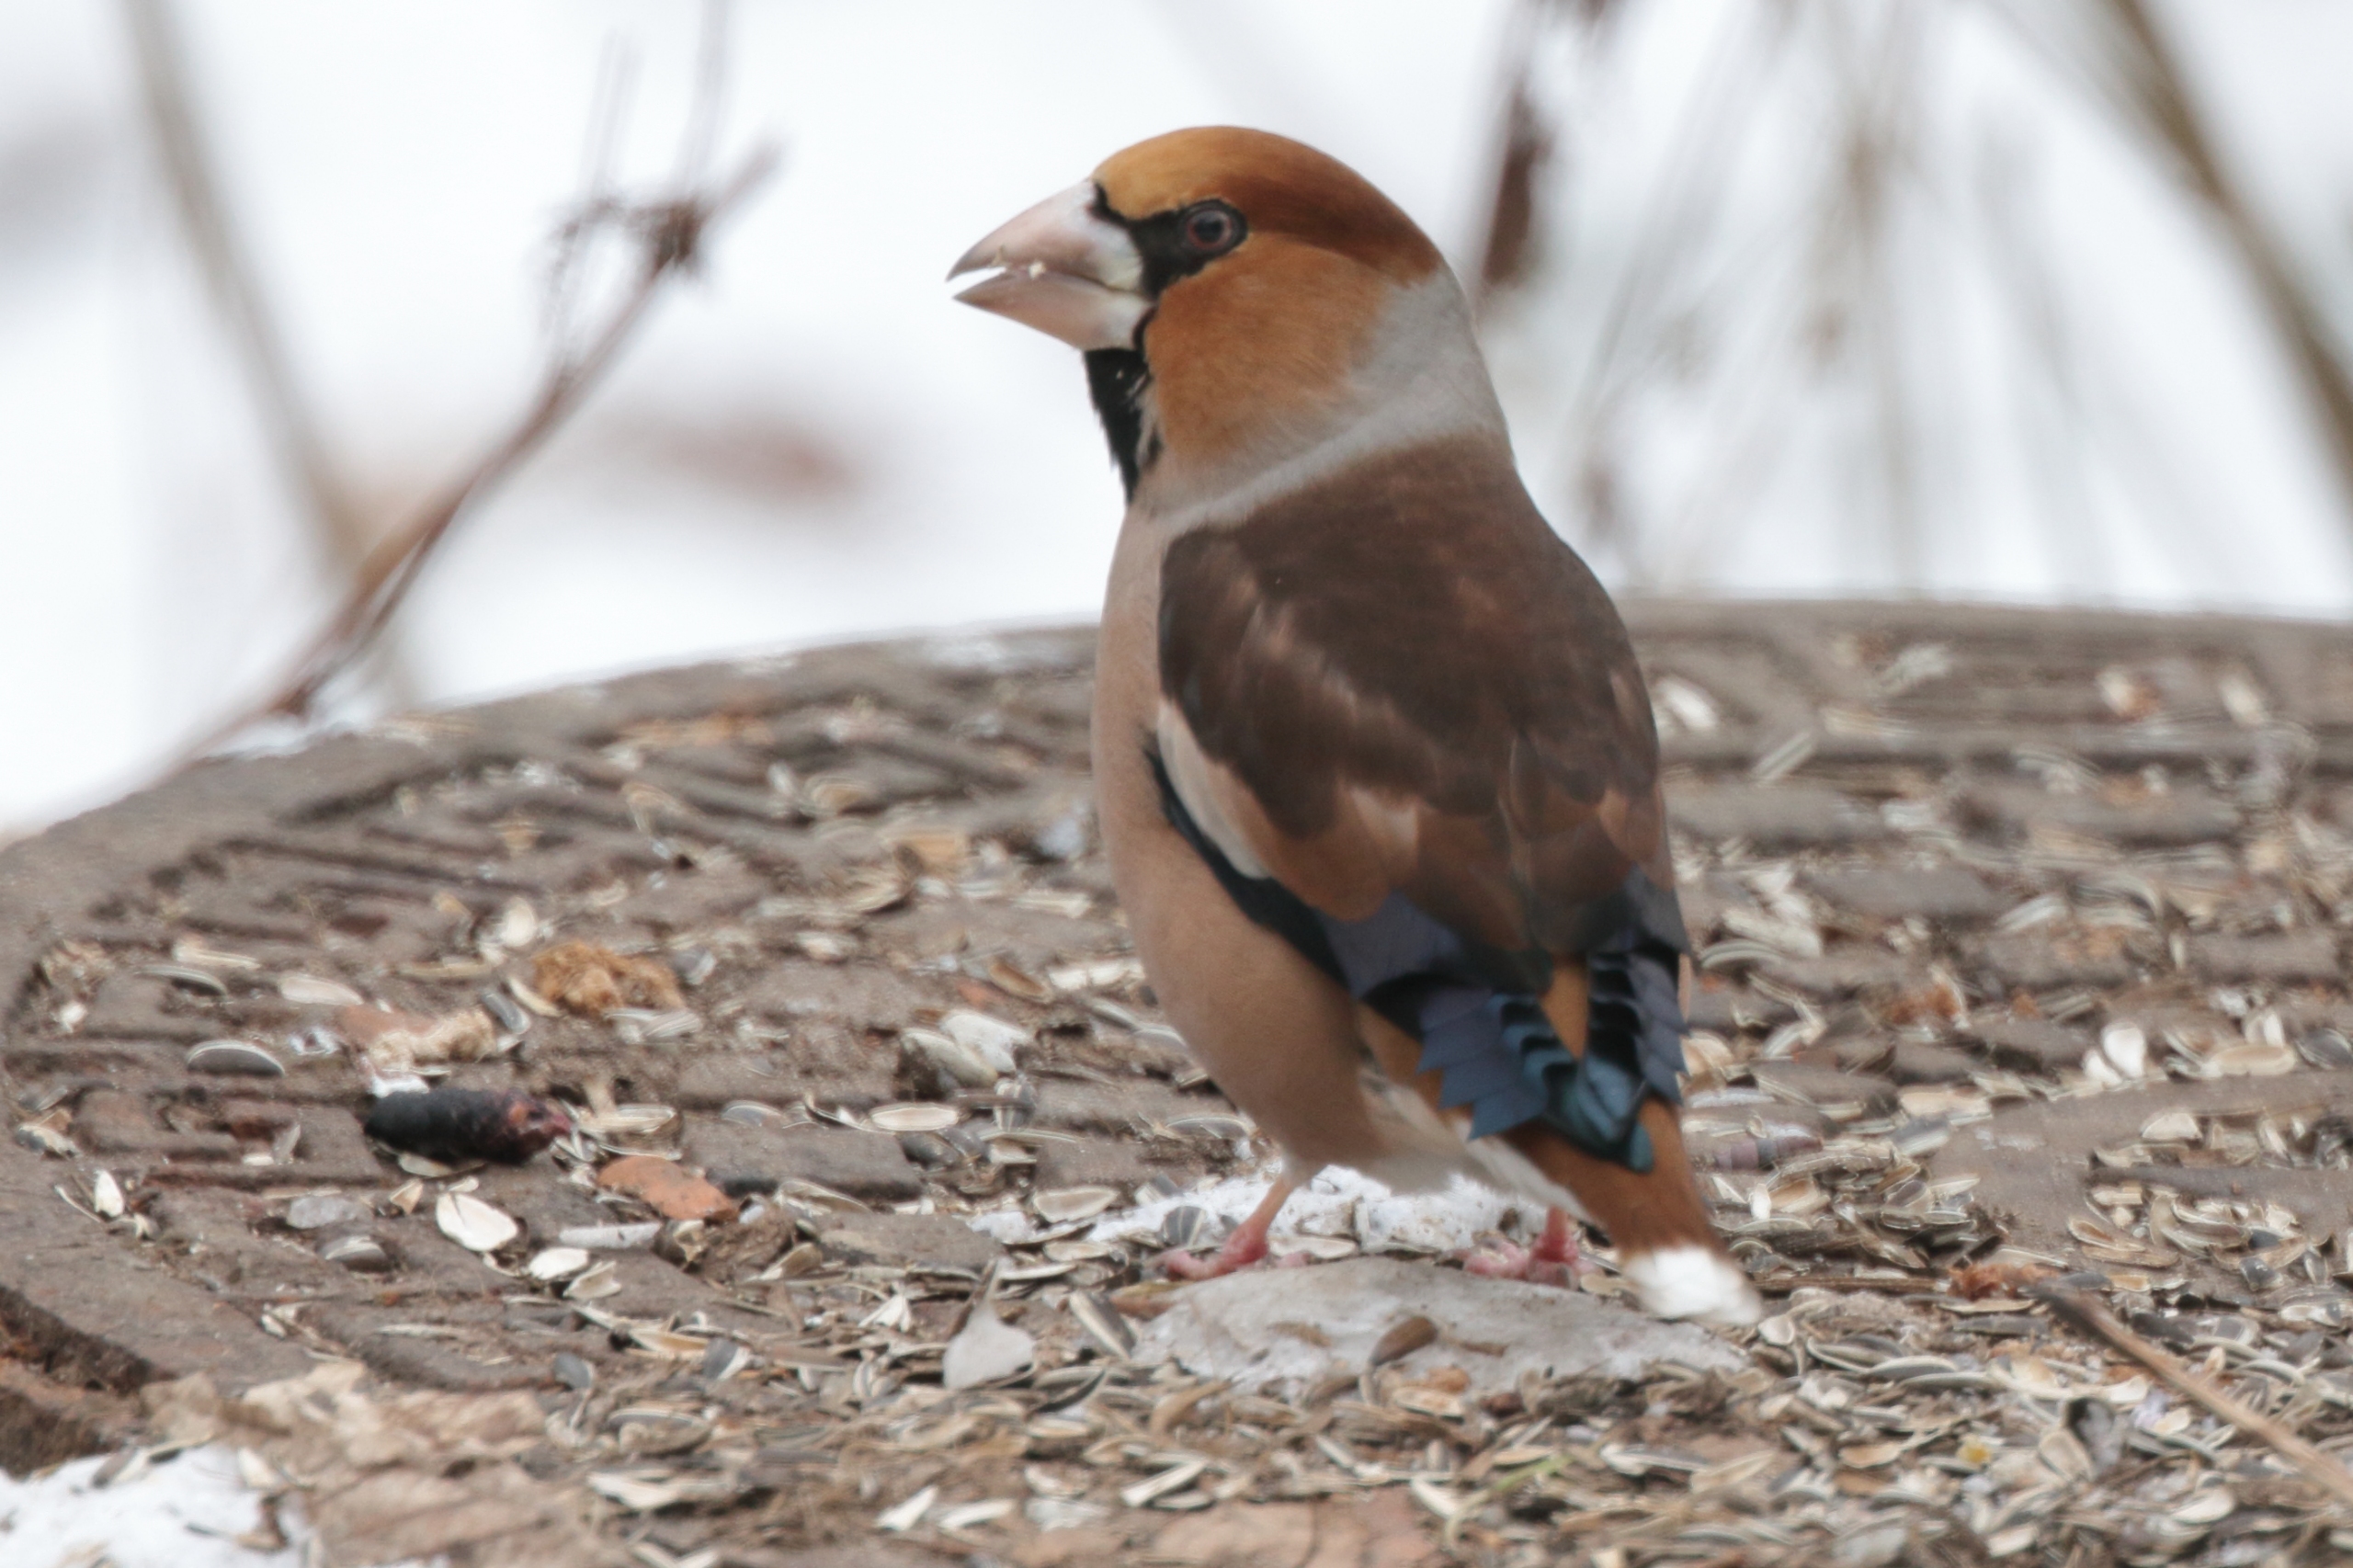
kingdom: Animalia
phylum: Chordata
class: Aves
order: Passeriformes
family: Fringillidae
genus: Coccothraustes
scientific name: Coccothraustes coccothraustes
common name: Kernebider
